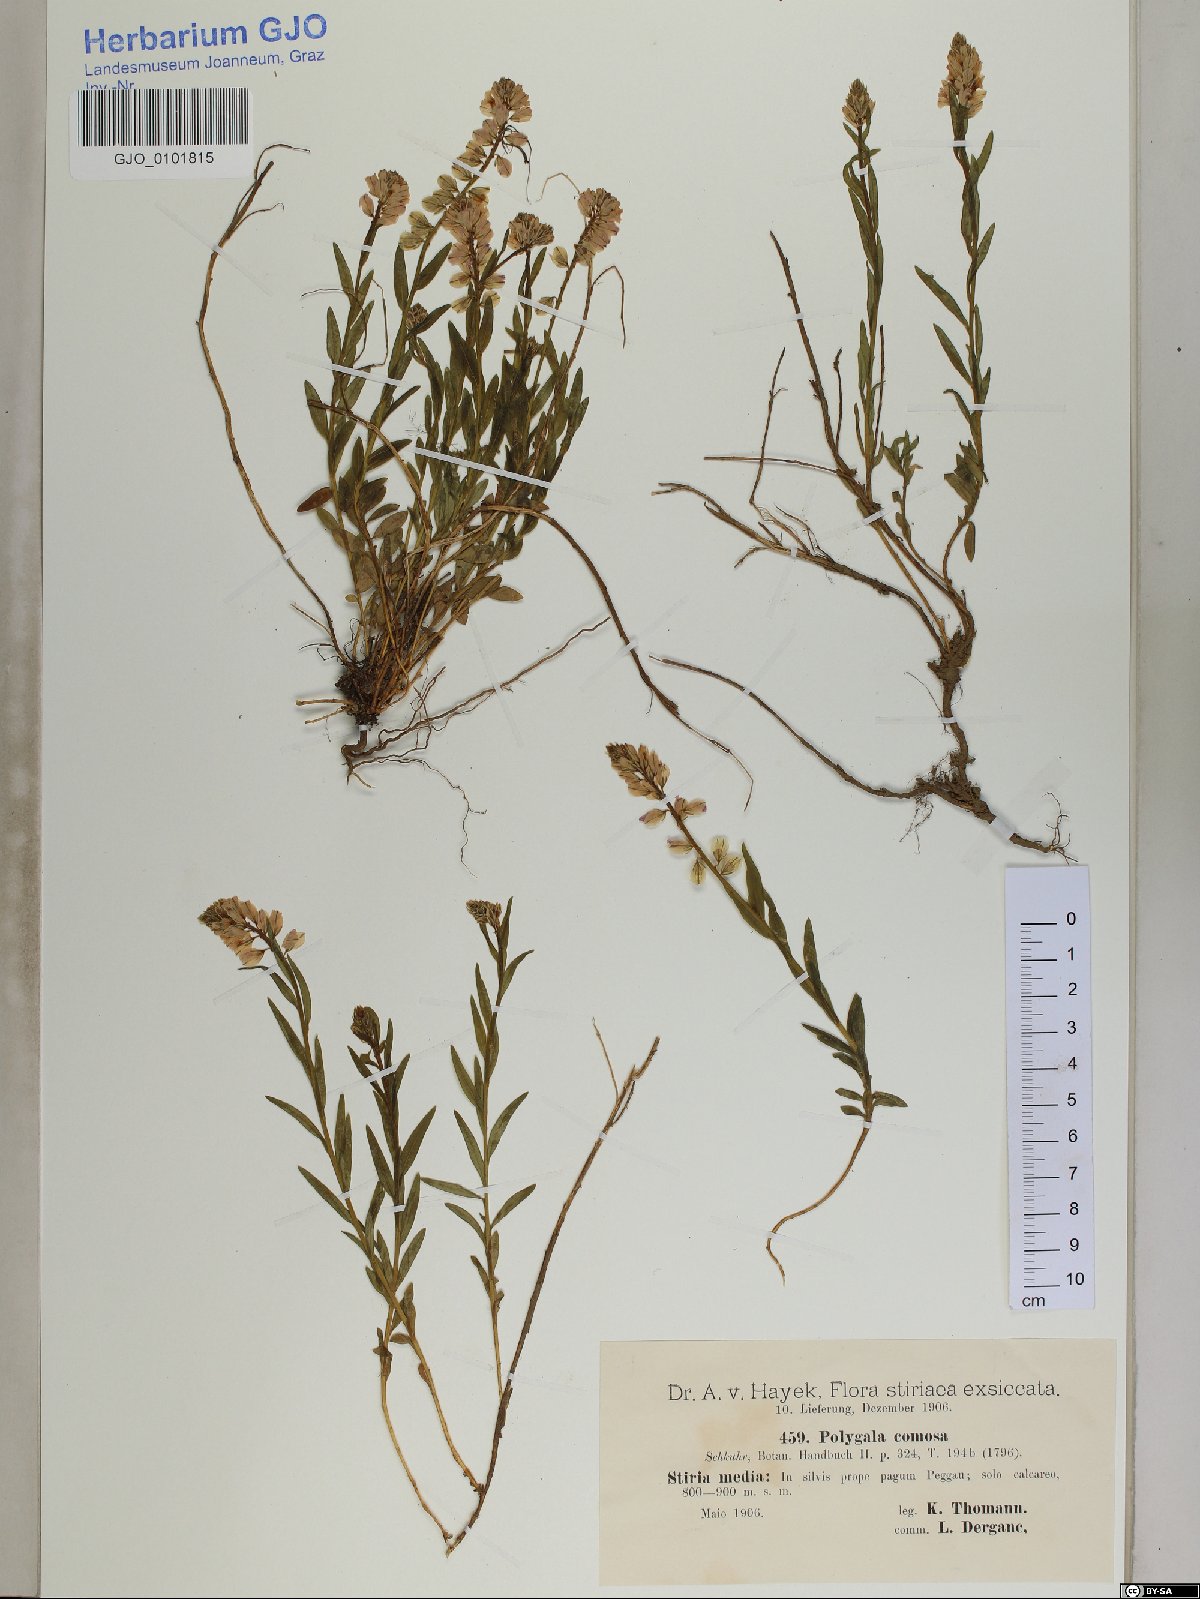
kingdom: Plantae
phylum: Tracheophyta
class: Magnoliopsida
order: Fabales
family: Polygalaceae
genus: Polygala
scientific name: Polygala comosa
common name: Tufted milkwort
